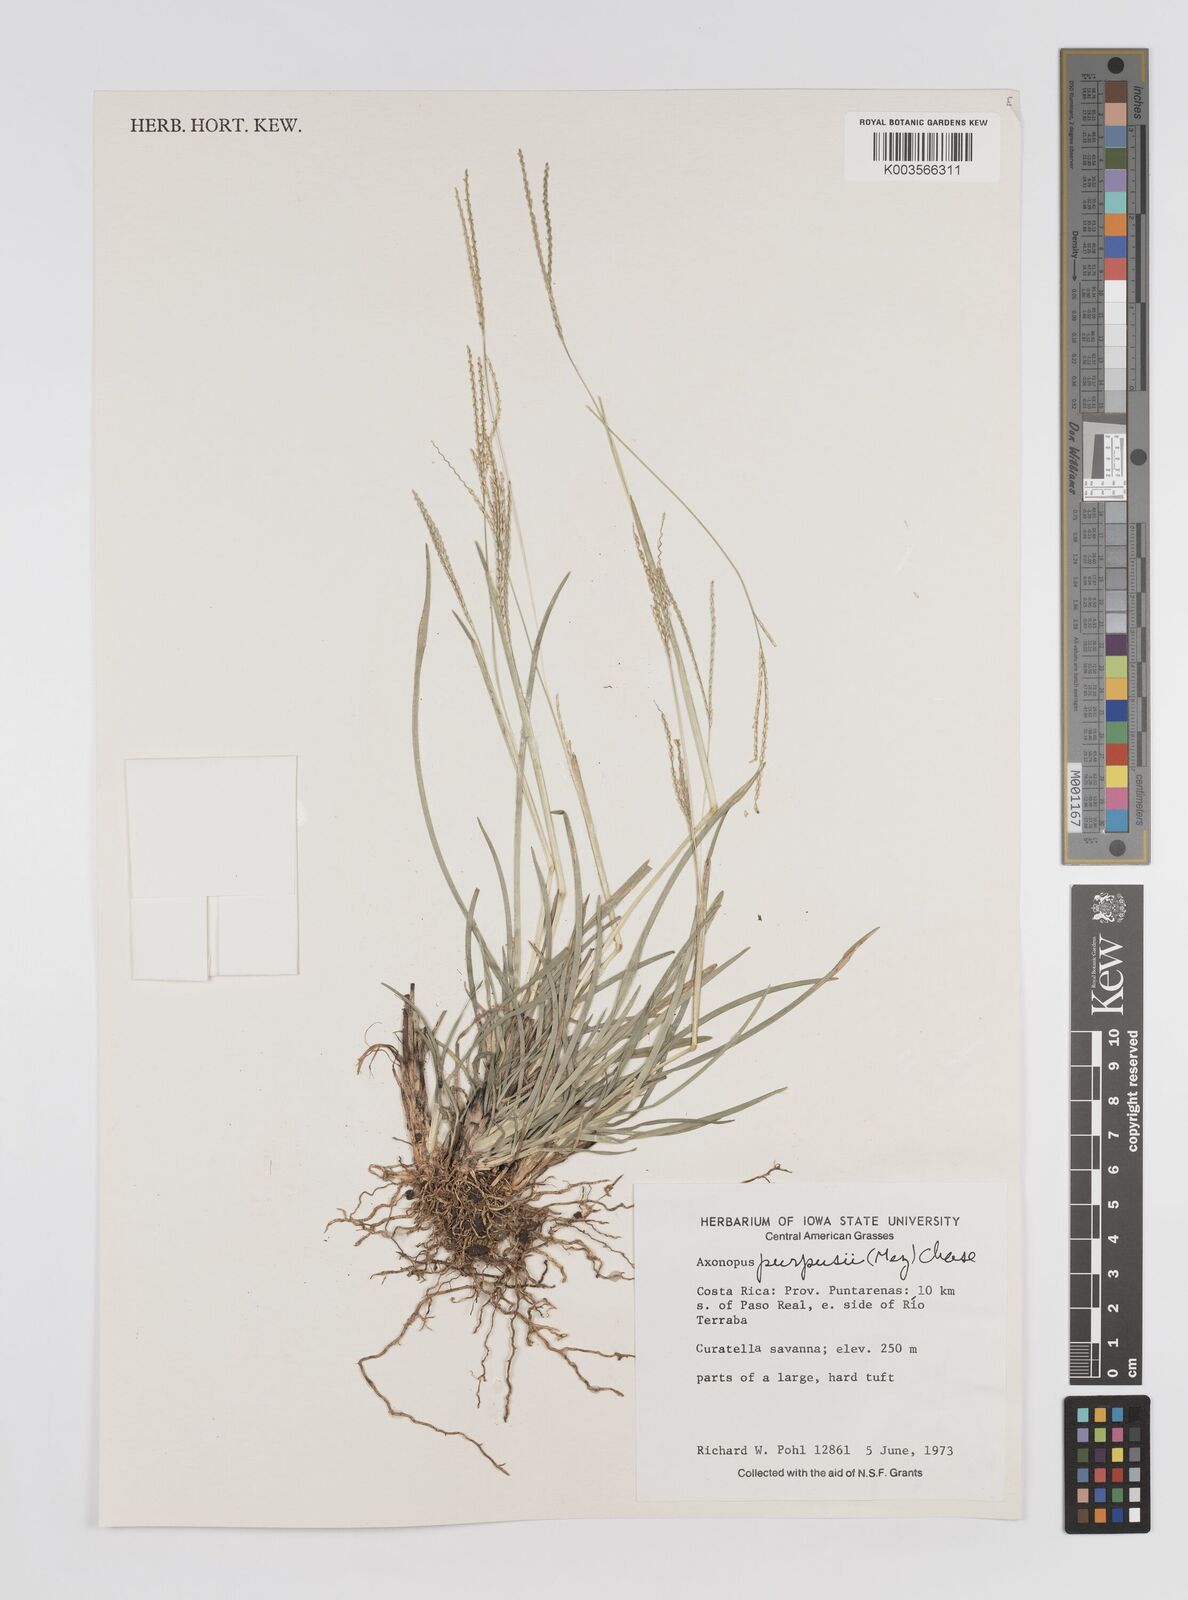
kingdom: Plantae
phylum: Tracheophyta
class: Liliopsida
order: Poales
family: Poaceae
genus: Axonopus
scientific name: Axonopus purpusii
